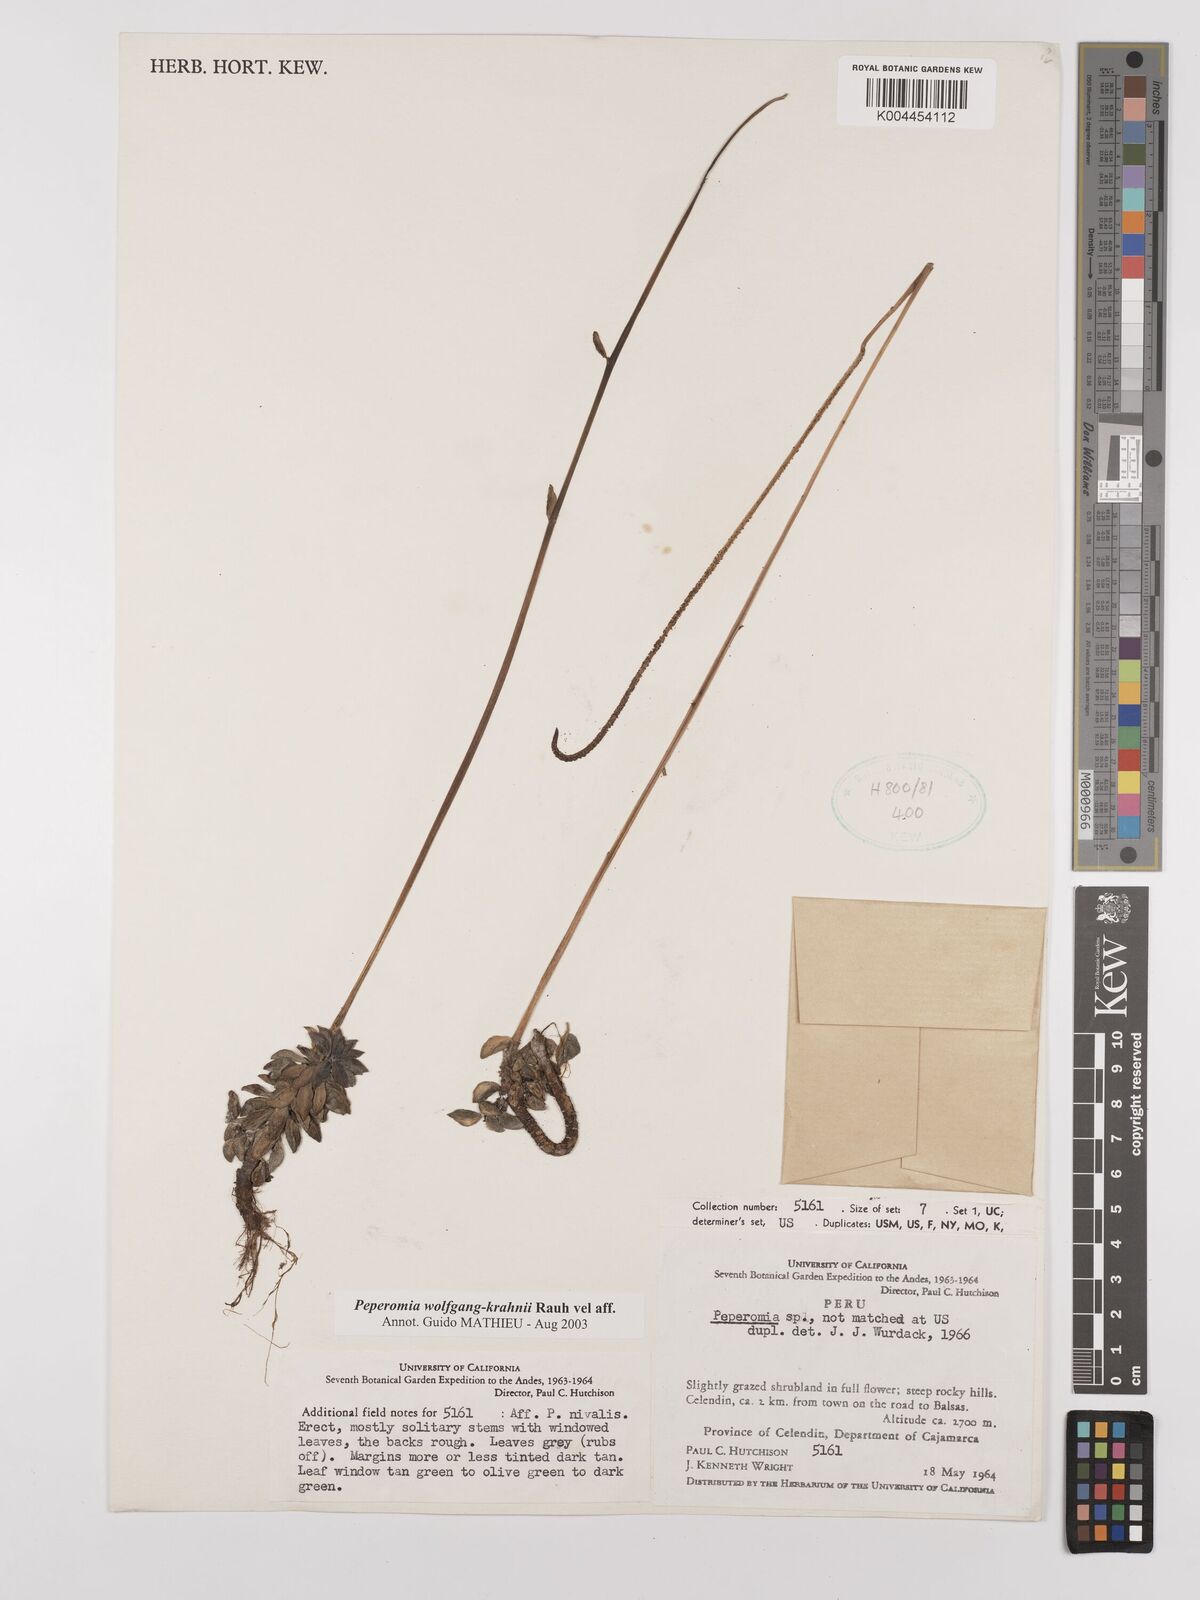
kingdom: Plantae
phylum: Tracheophyta
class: Magnoliopsida
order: Piperales
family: Piperaceae
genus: Peperomia
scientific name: Peperomia wolfgang-krahnii
